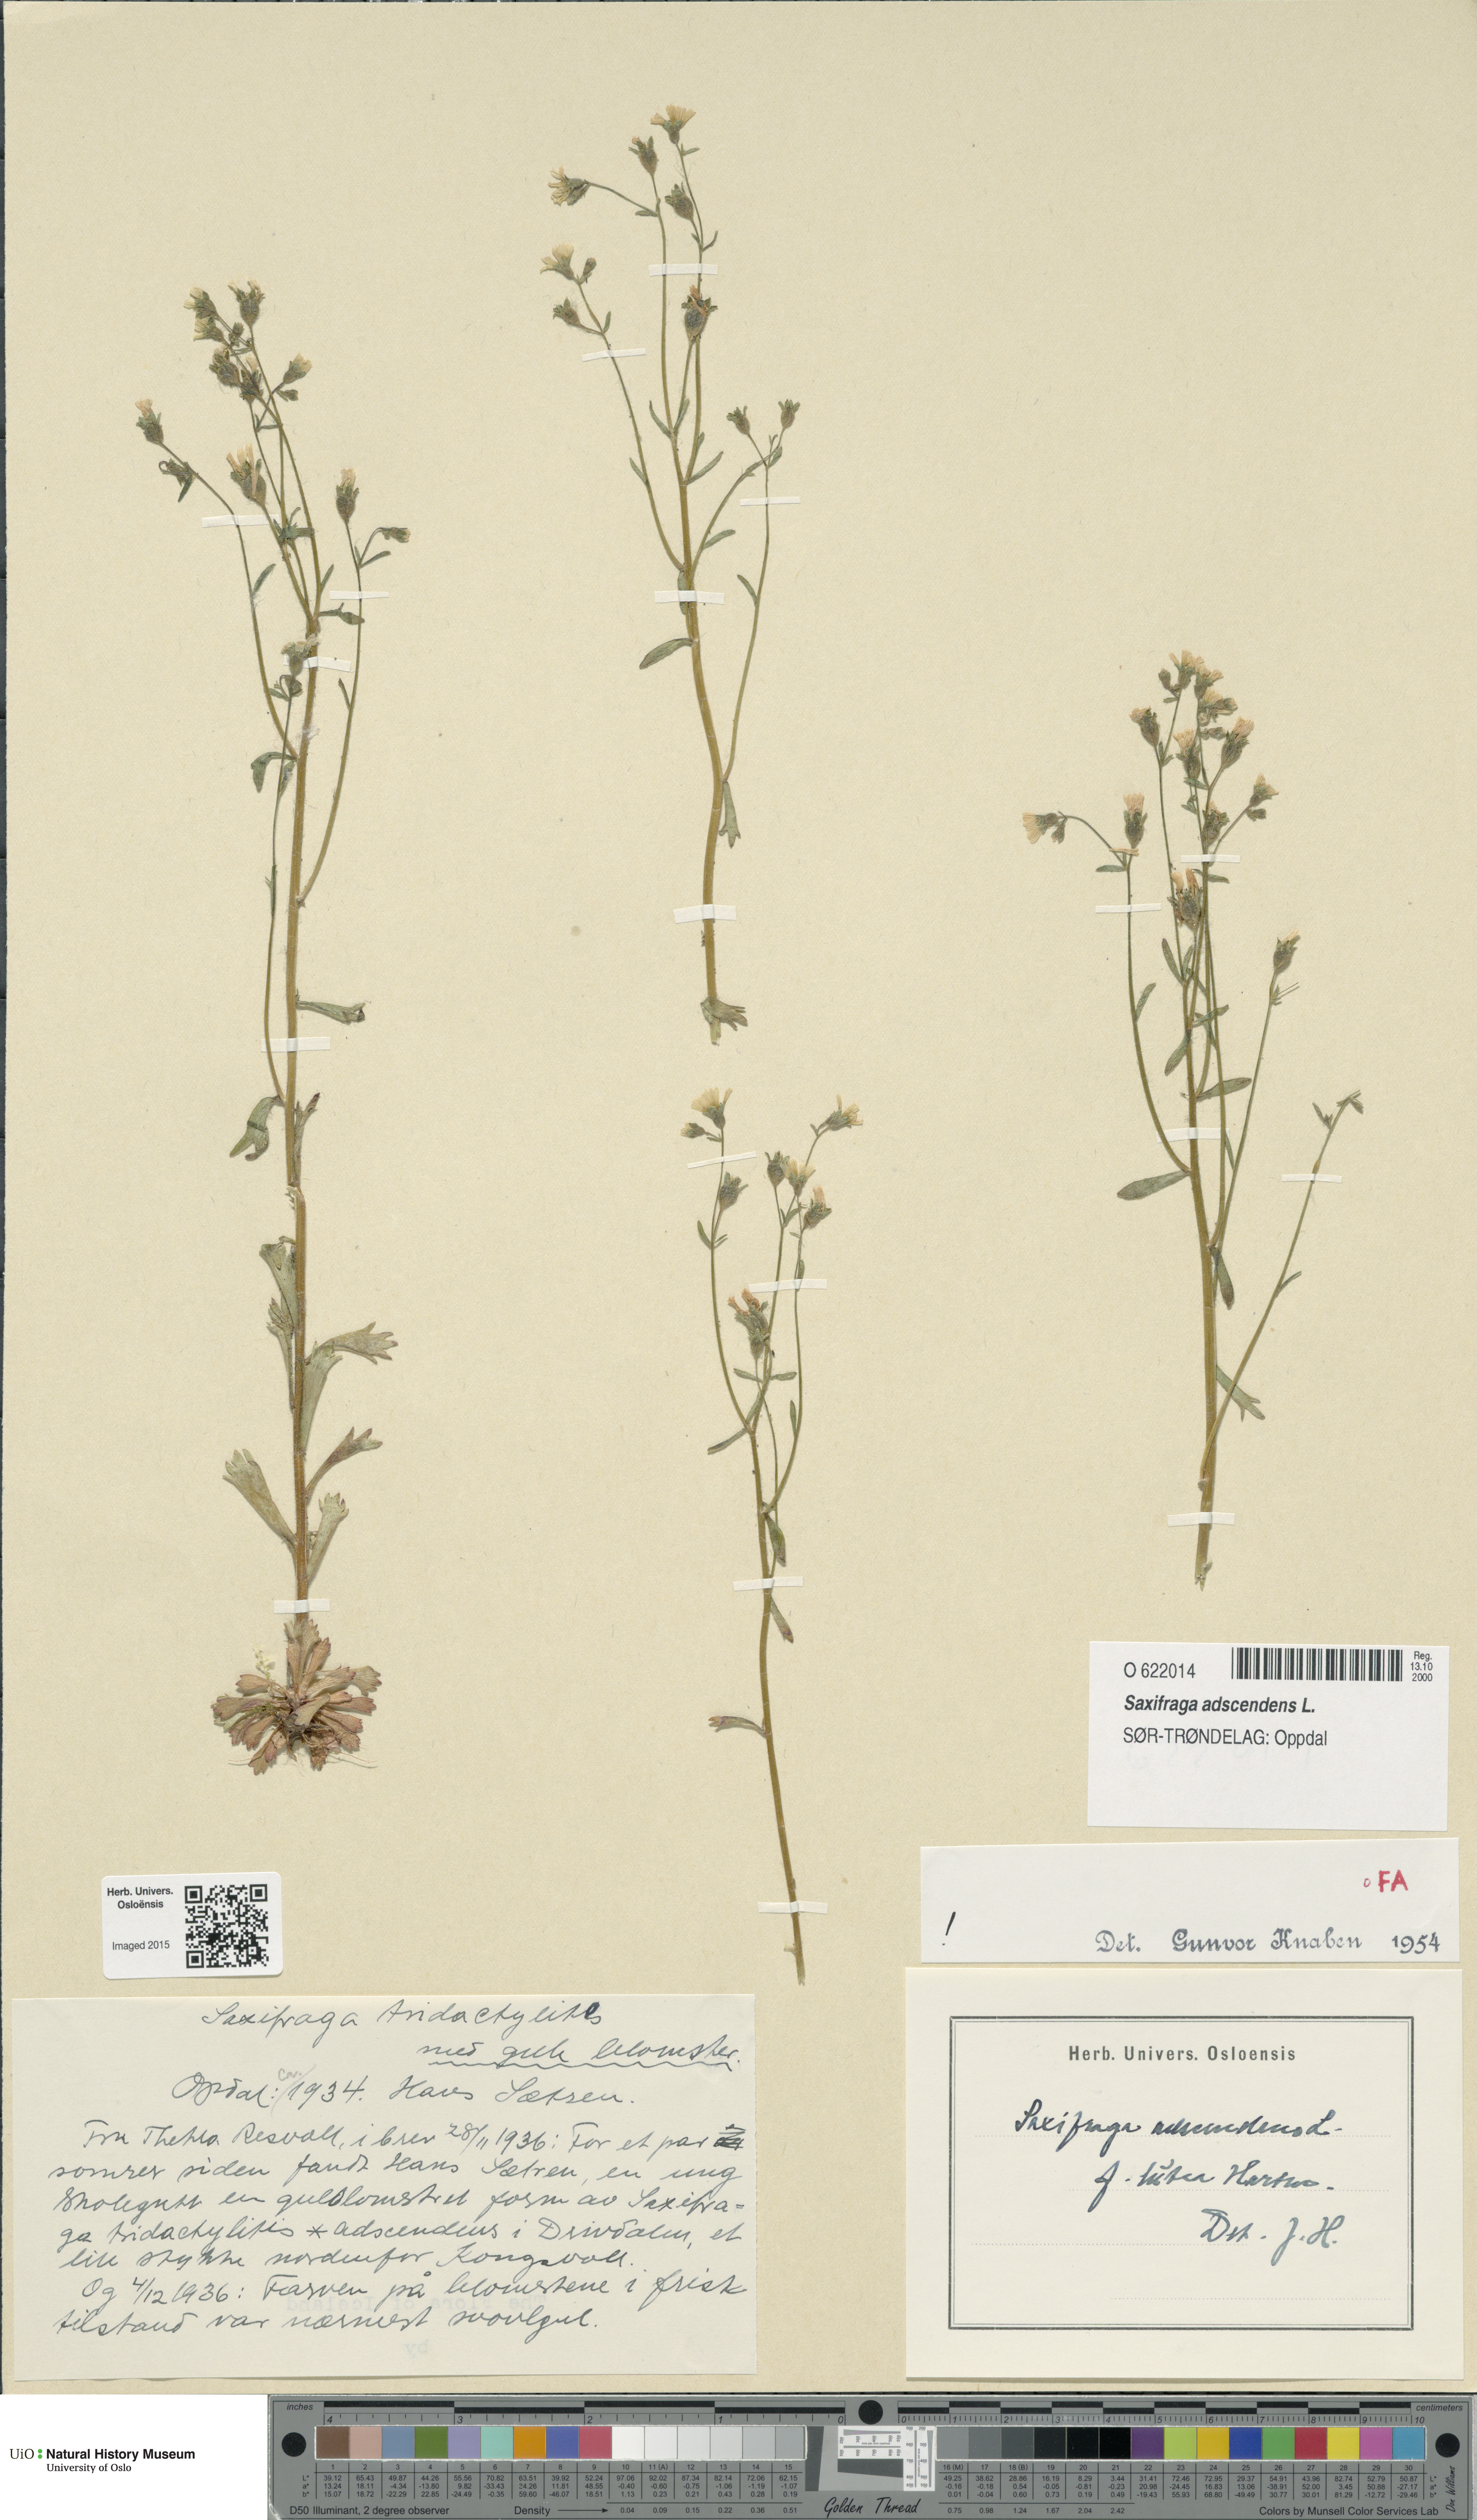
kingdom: Plantae
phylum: Tracheophyta
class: Magnoliopsida
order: Saxifragales
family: Saxifragaceae
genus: Saxifraga
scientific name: Saxifraga adscendens
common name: Ascending saxifrage
